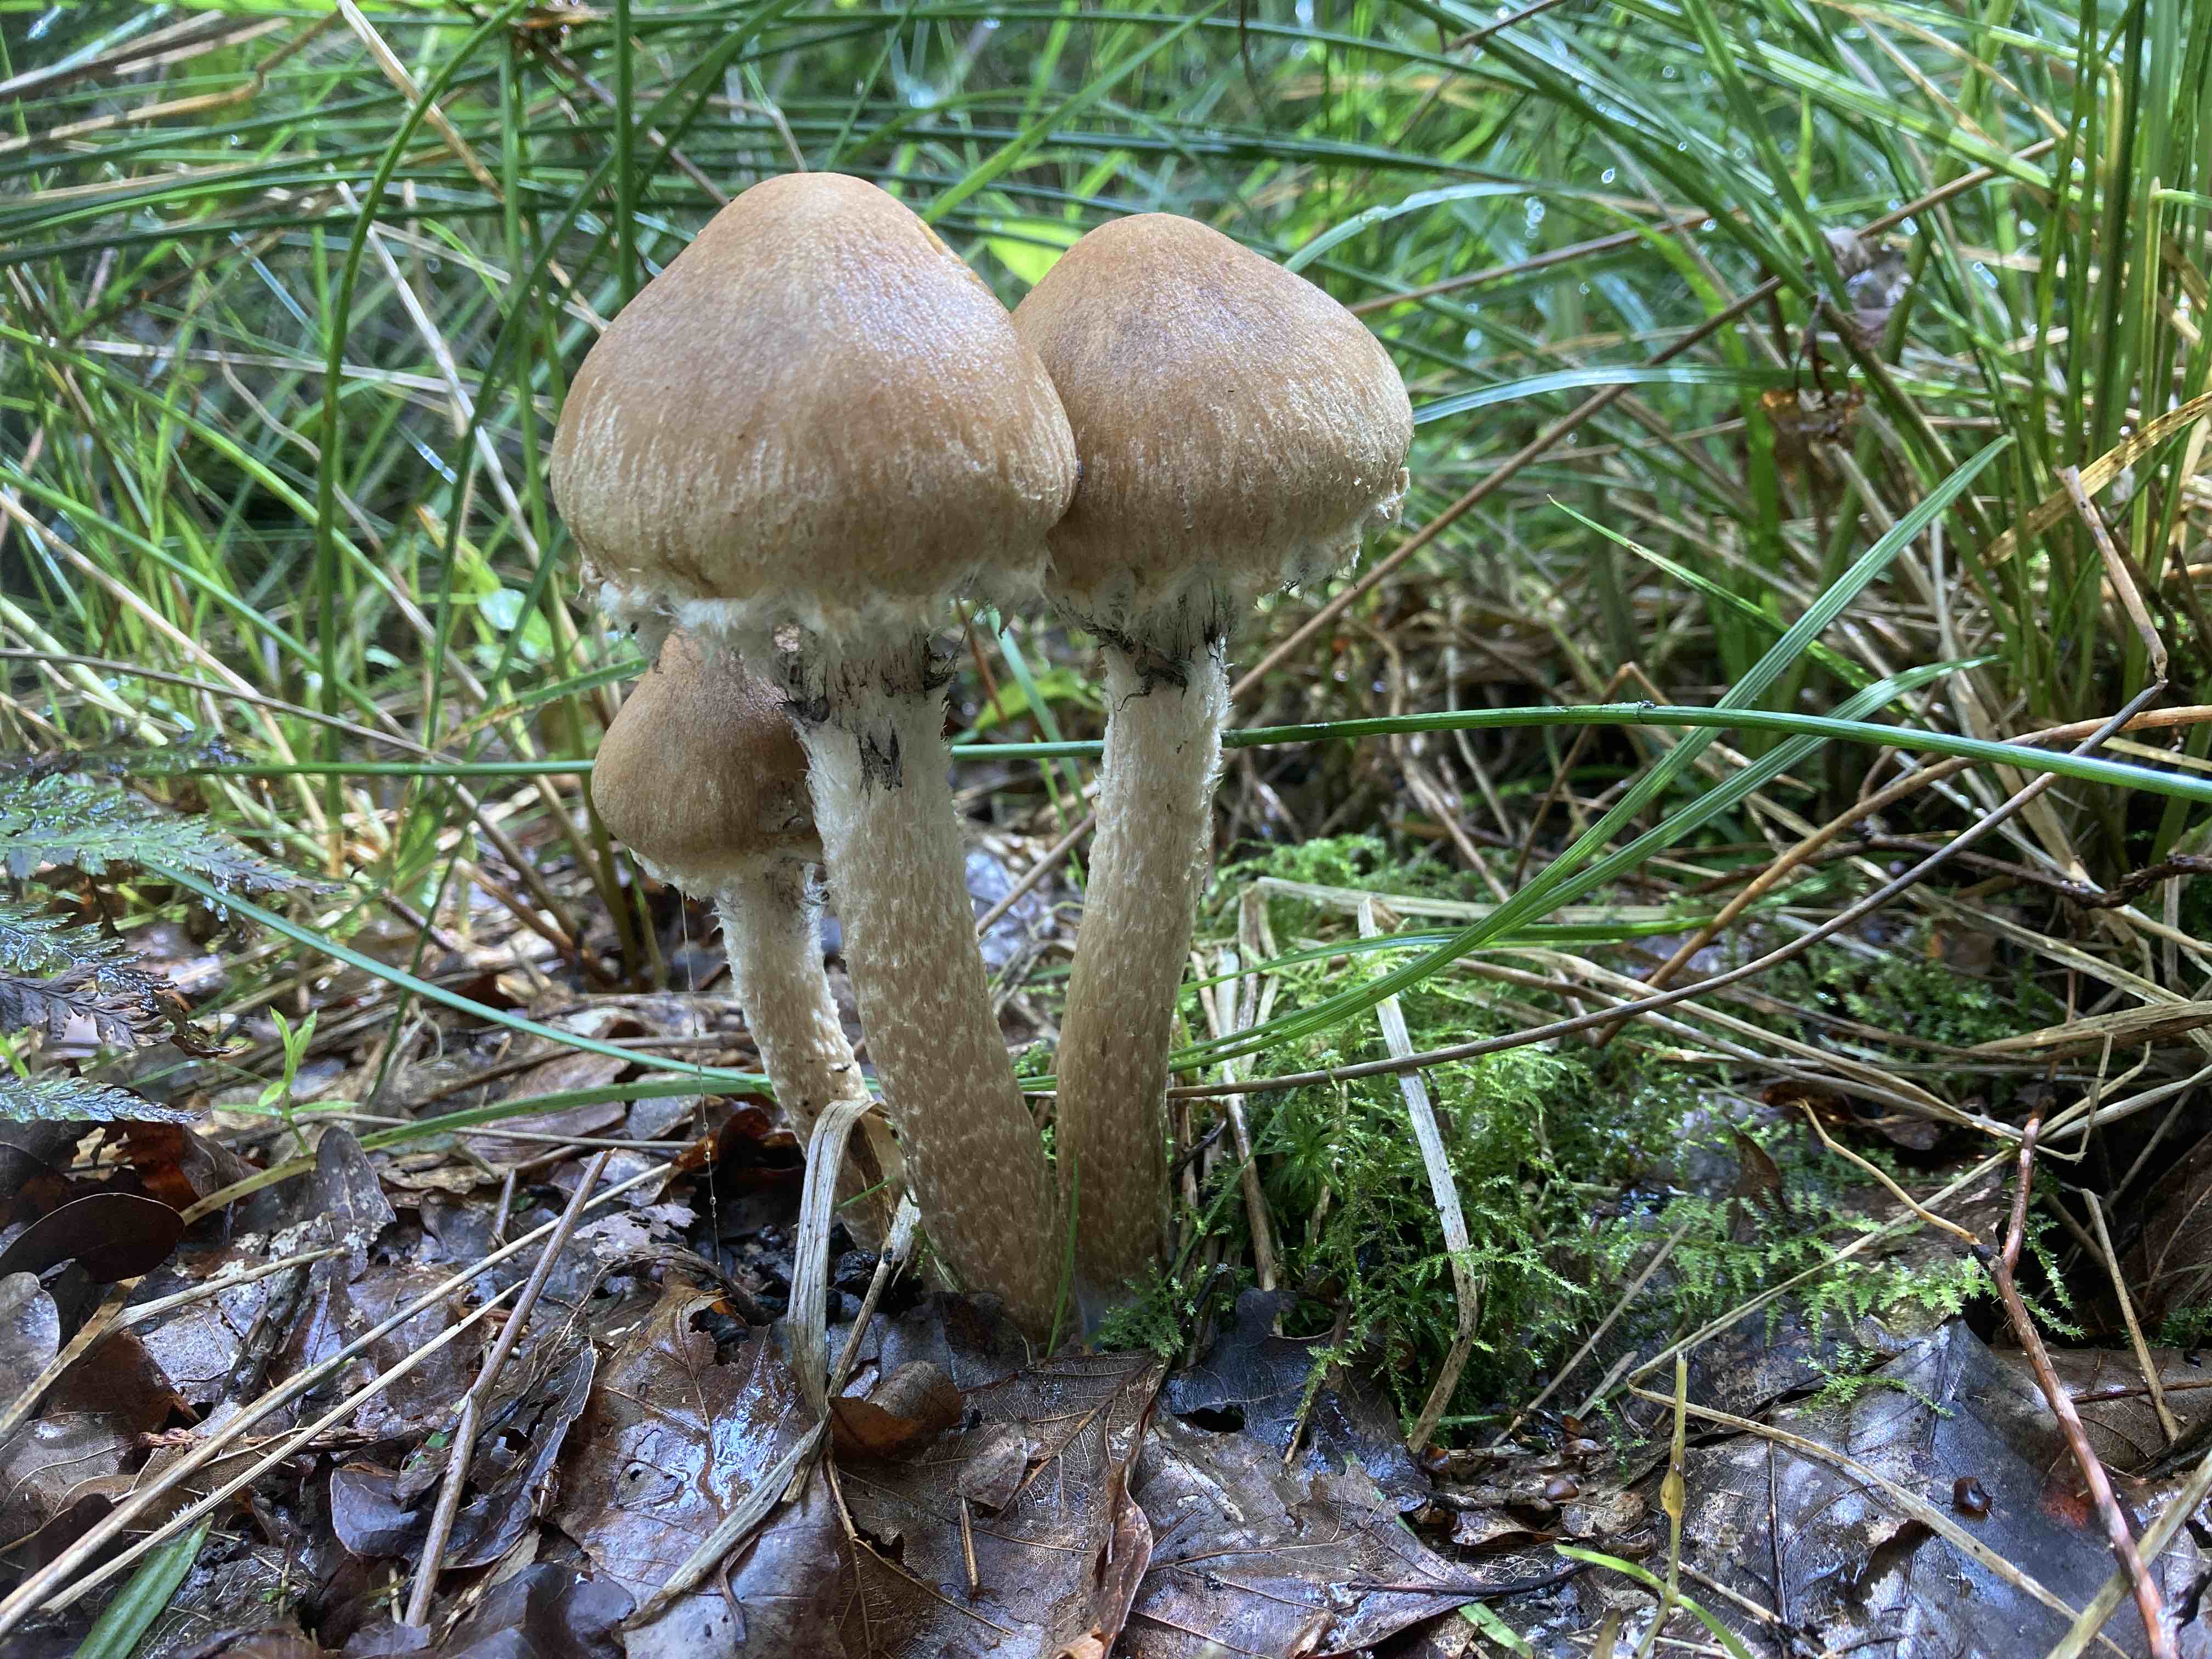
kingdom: Fungi
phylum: Basidiomycota
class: Agaricomycetes
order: Agaricales
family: Psathyrellaceae
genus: Lacrymaria
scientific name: Lacrymaria lacrymabunda
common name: grædende mørkhat
